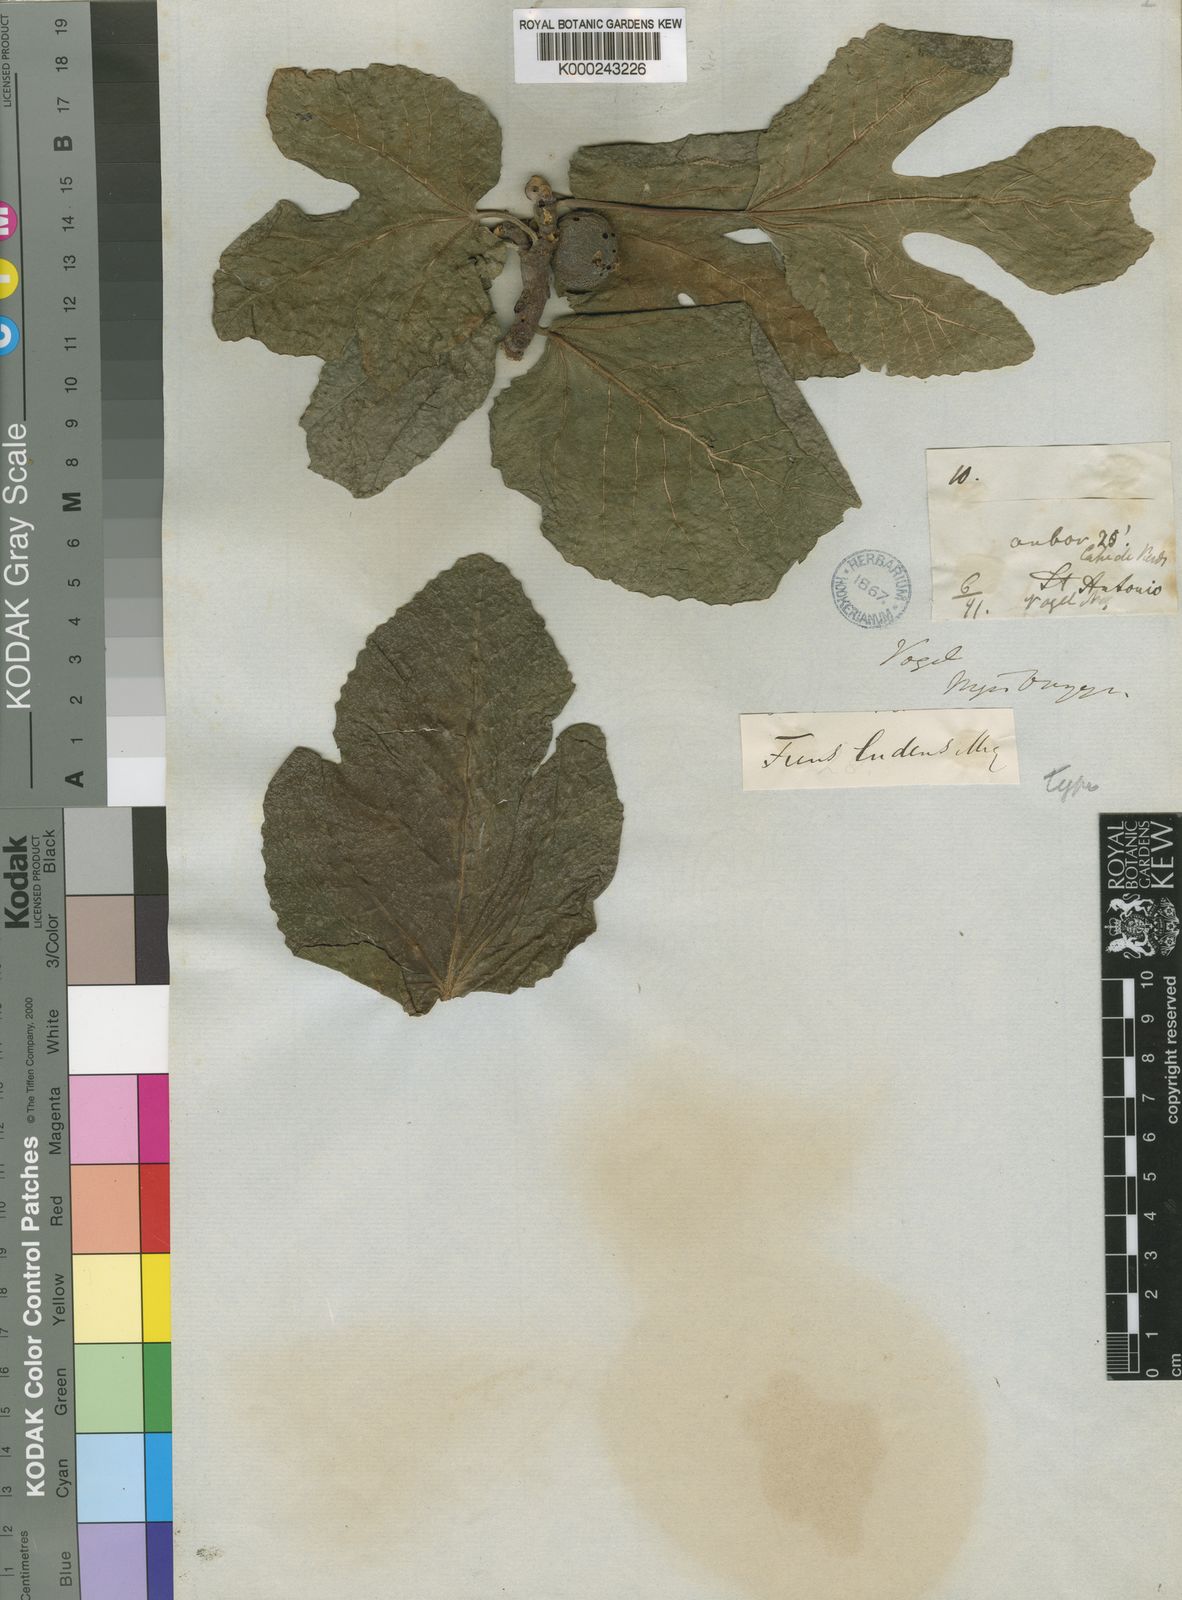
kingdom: Plantae
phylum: Tracheophyta
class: Magnoliopsida
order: Rosales
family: Moraceae
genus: Ficus
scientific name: Ficus
